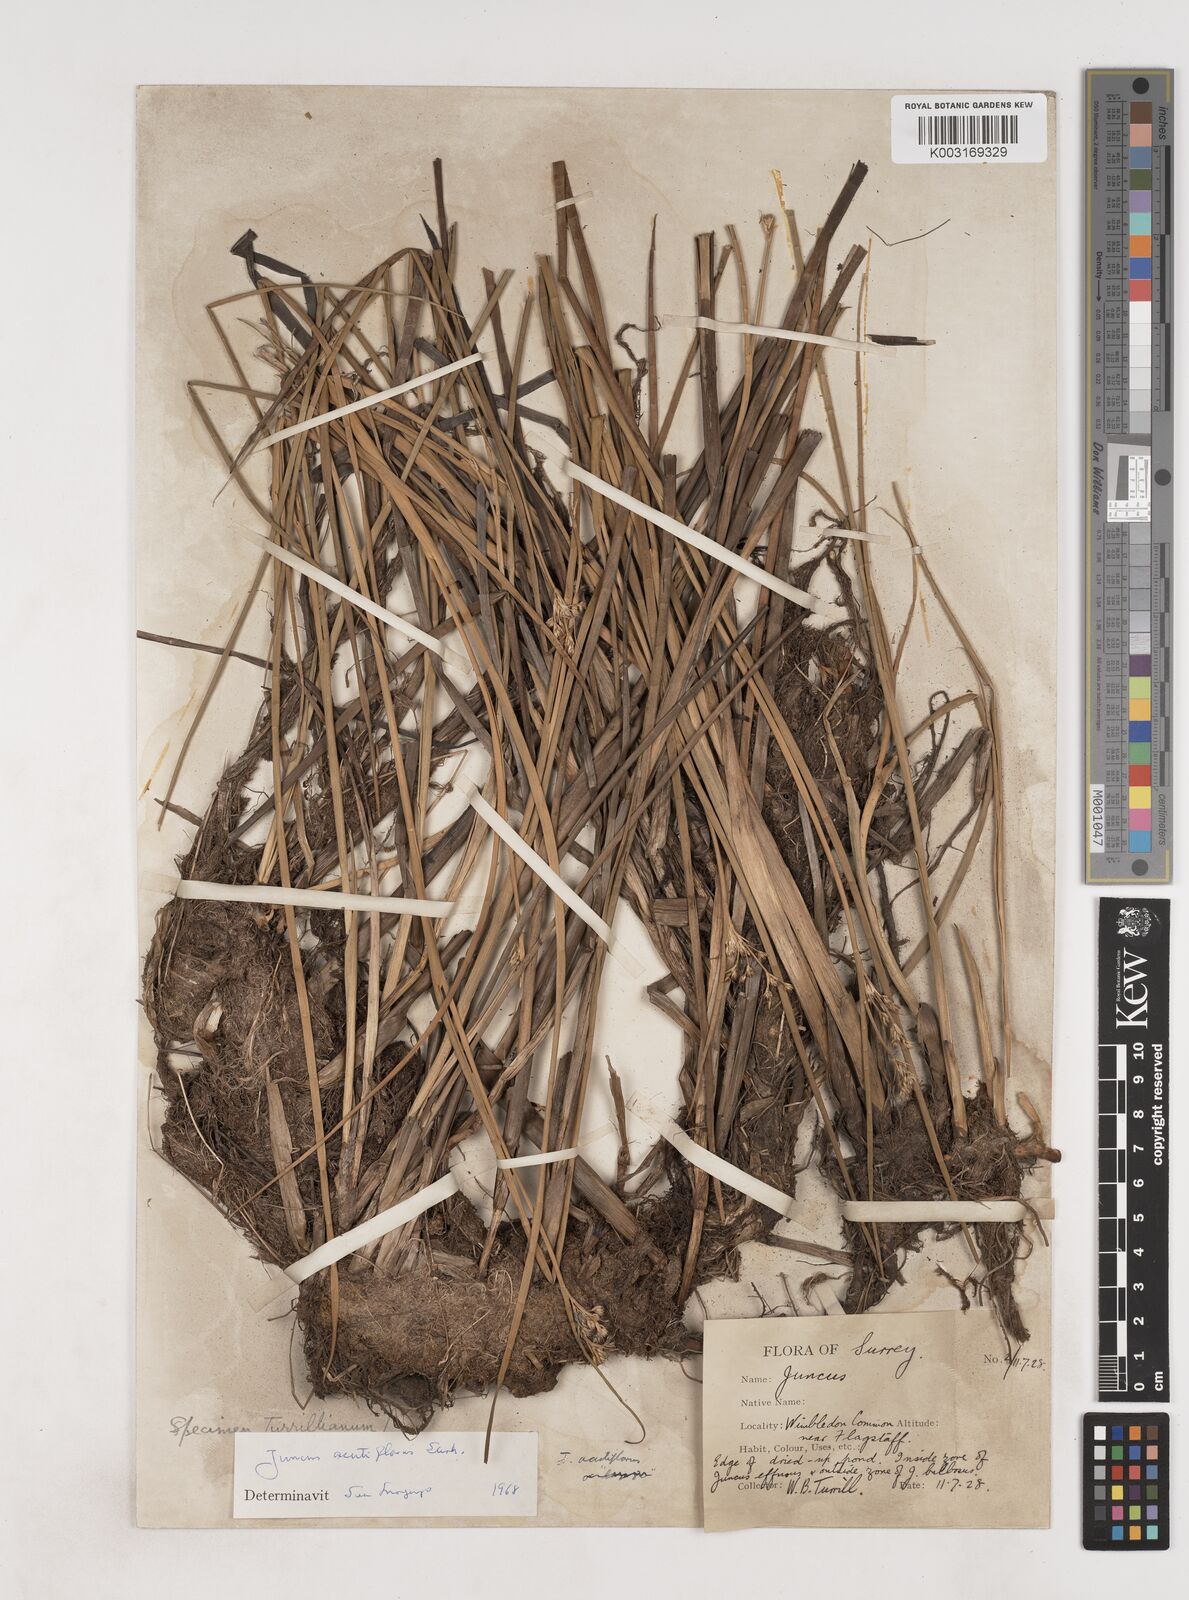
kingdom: Plantae
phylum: Tracheophyta
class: Liliopsida
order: Poales
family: Juncaceae
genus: Juncus
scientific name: Juncus acutiflorus
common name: Sharp-flowered rush
